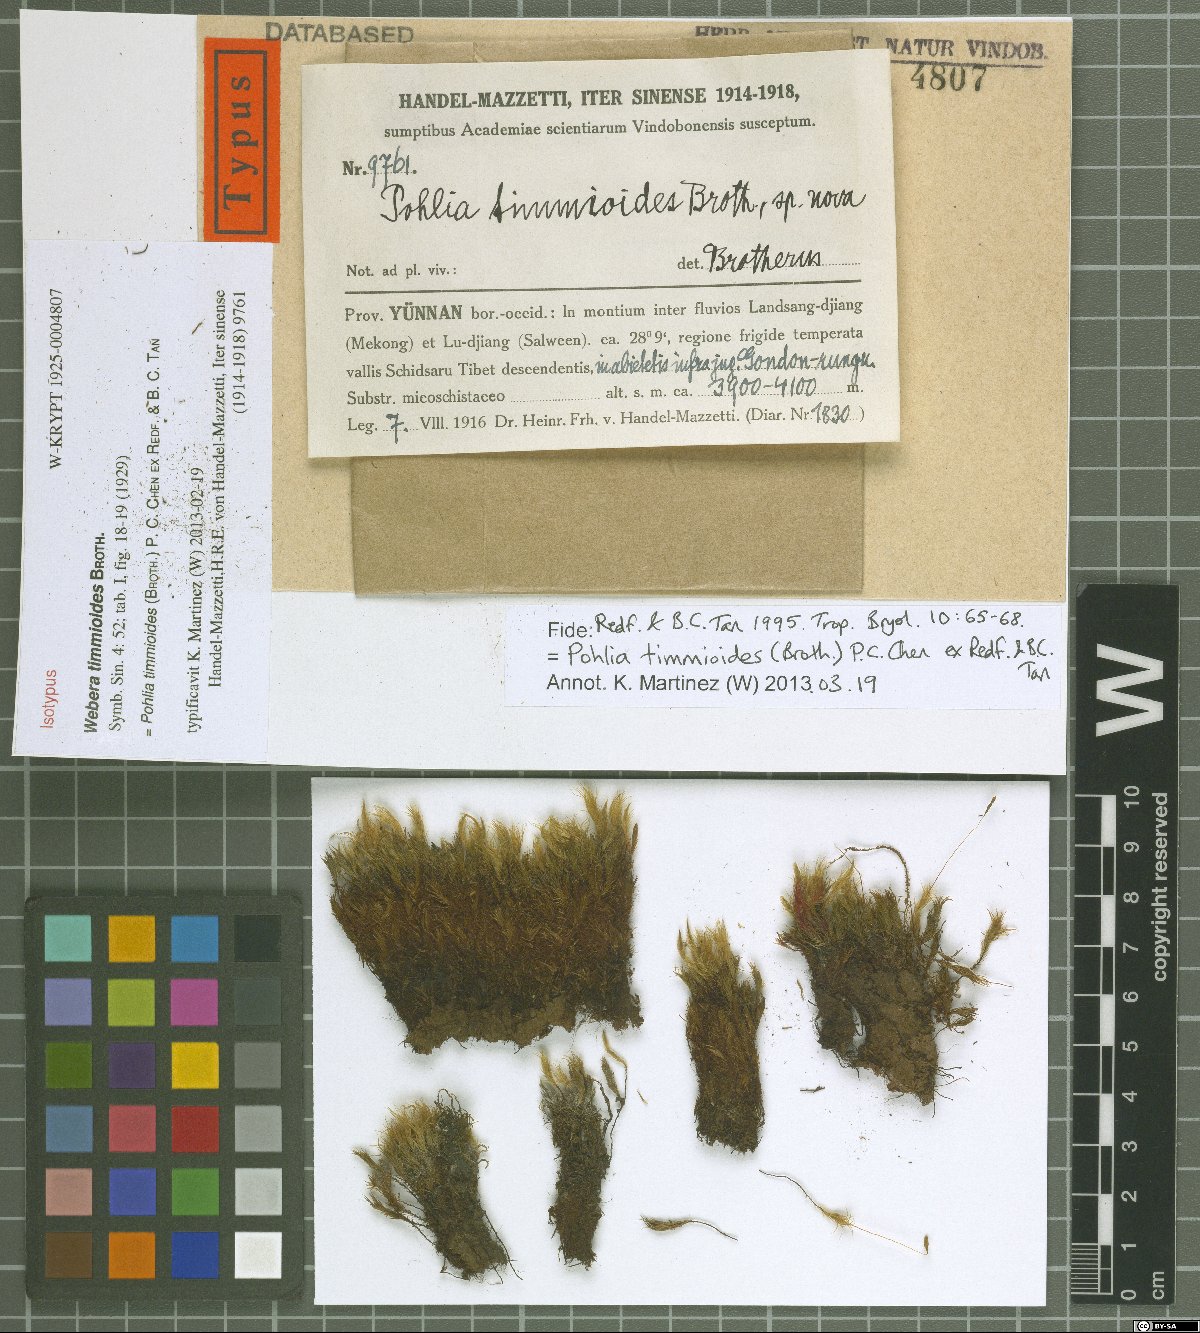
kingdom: Plantae
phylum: Bryophyta
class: Bryopsida
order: Bryales
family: Mniaceae
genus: Pohlia
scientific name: Pohlia timmioides
